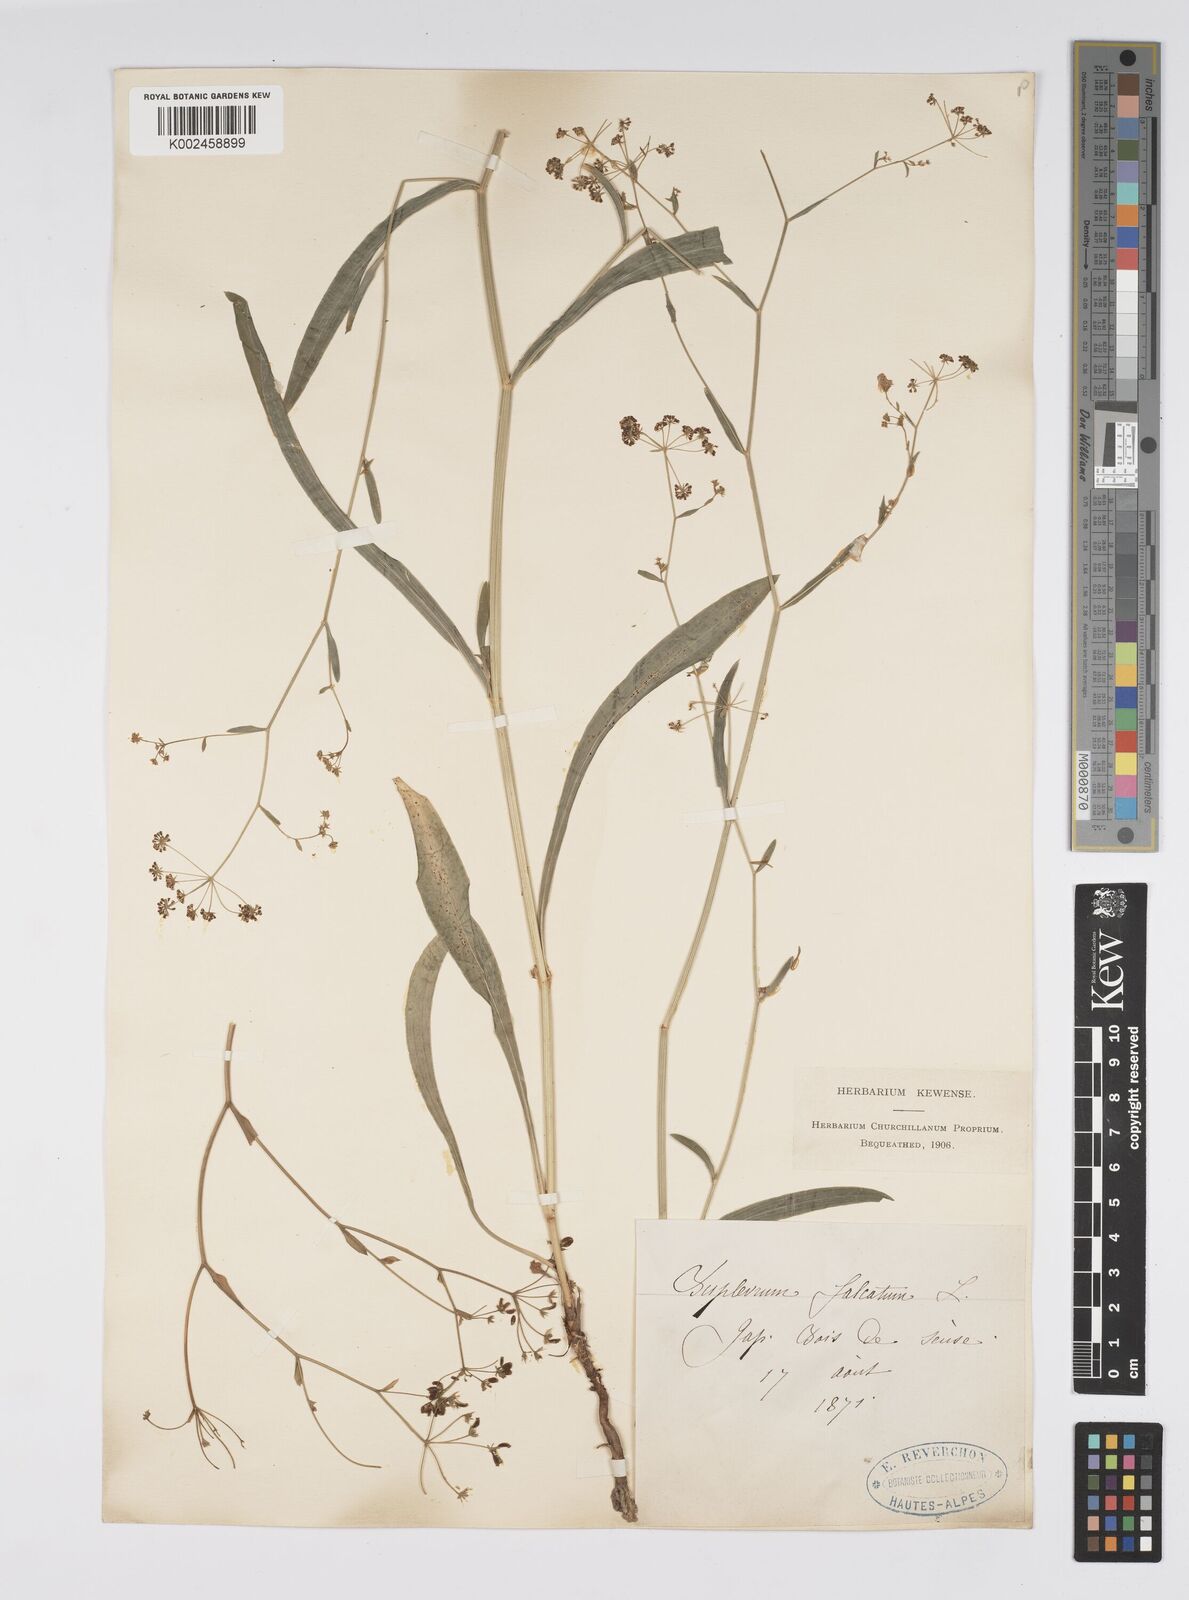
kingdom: Plantae
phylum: Tracheophyta
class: Magnoliopsida
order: Apiales
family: Apiaceae
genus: Bupleurum
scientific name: Bupleurum falcatum
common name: Sickle-leaved hare's-ear
